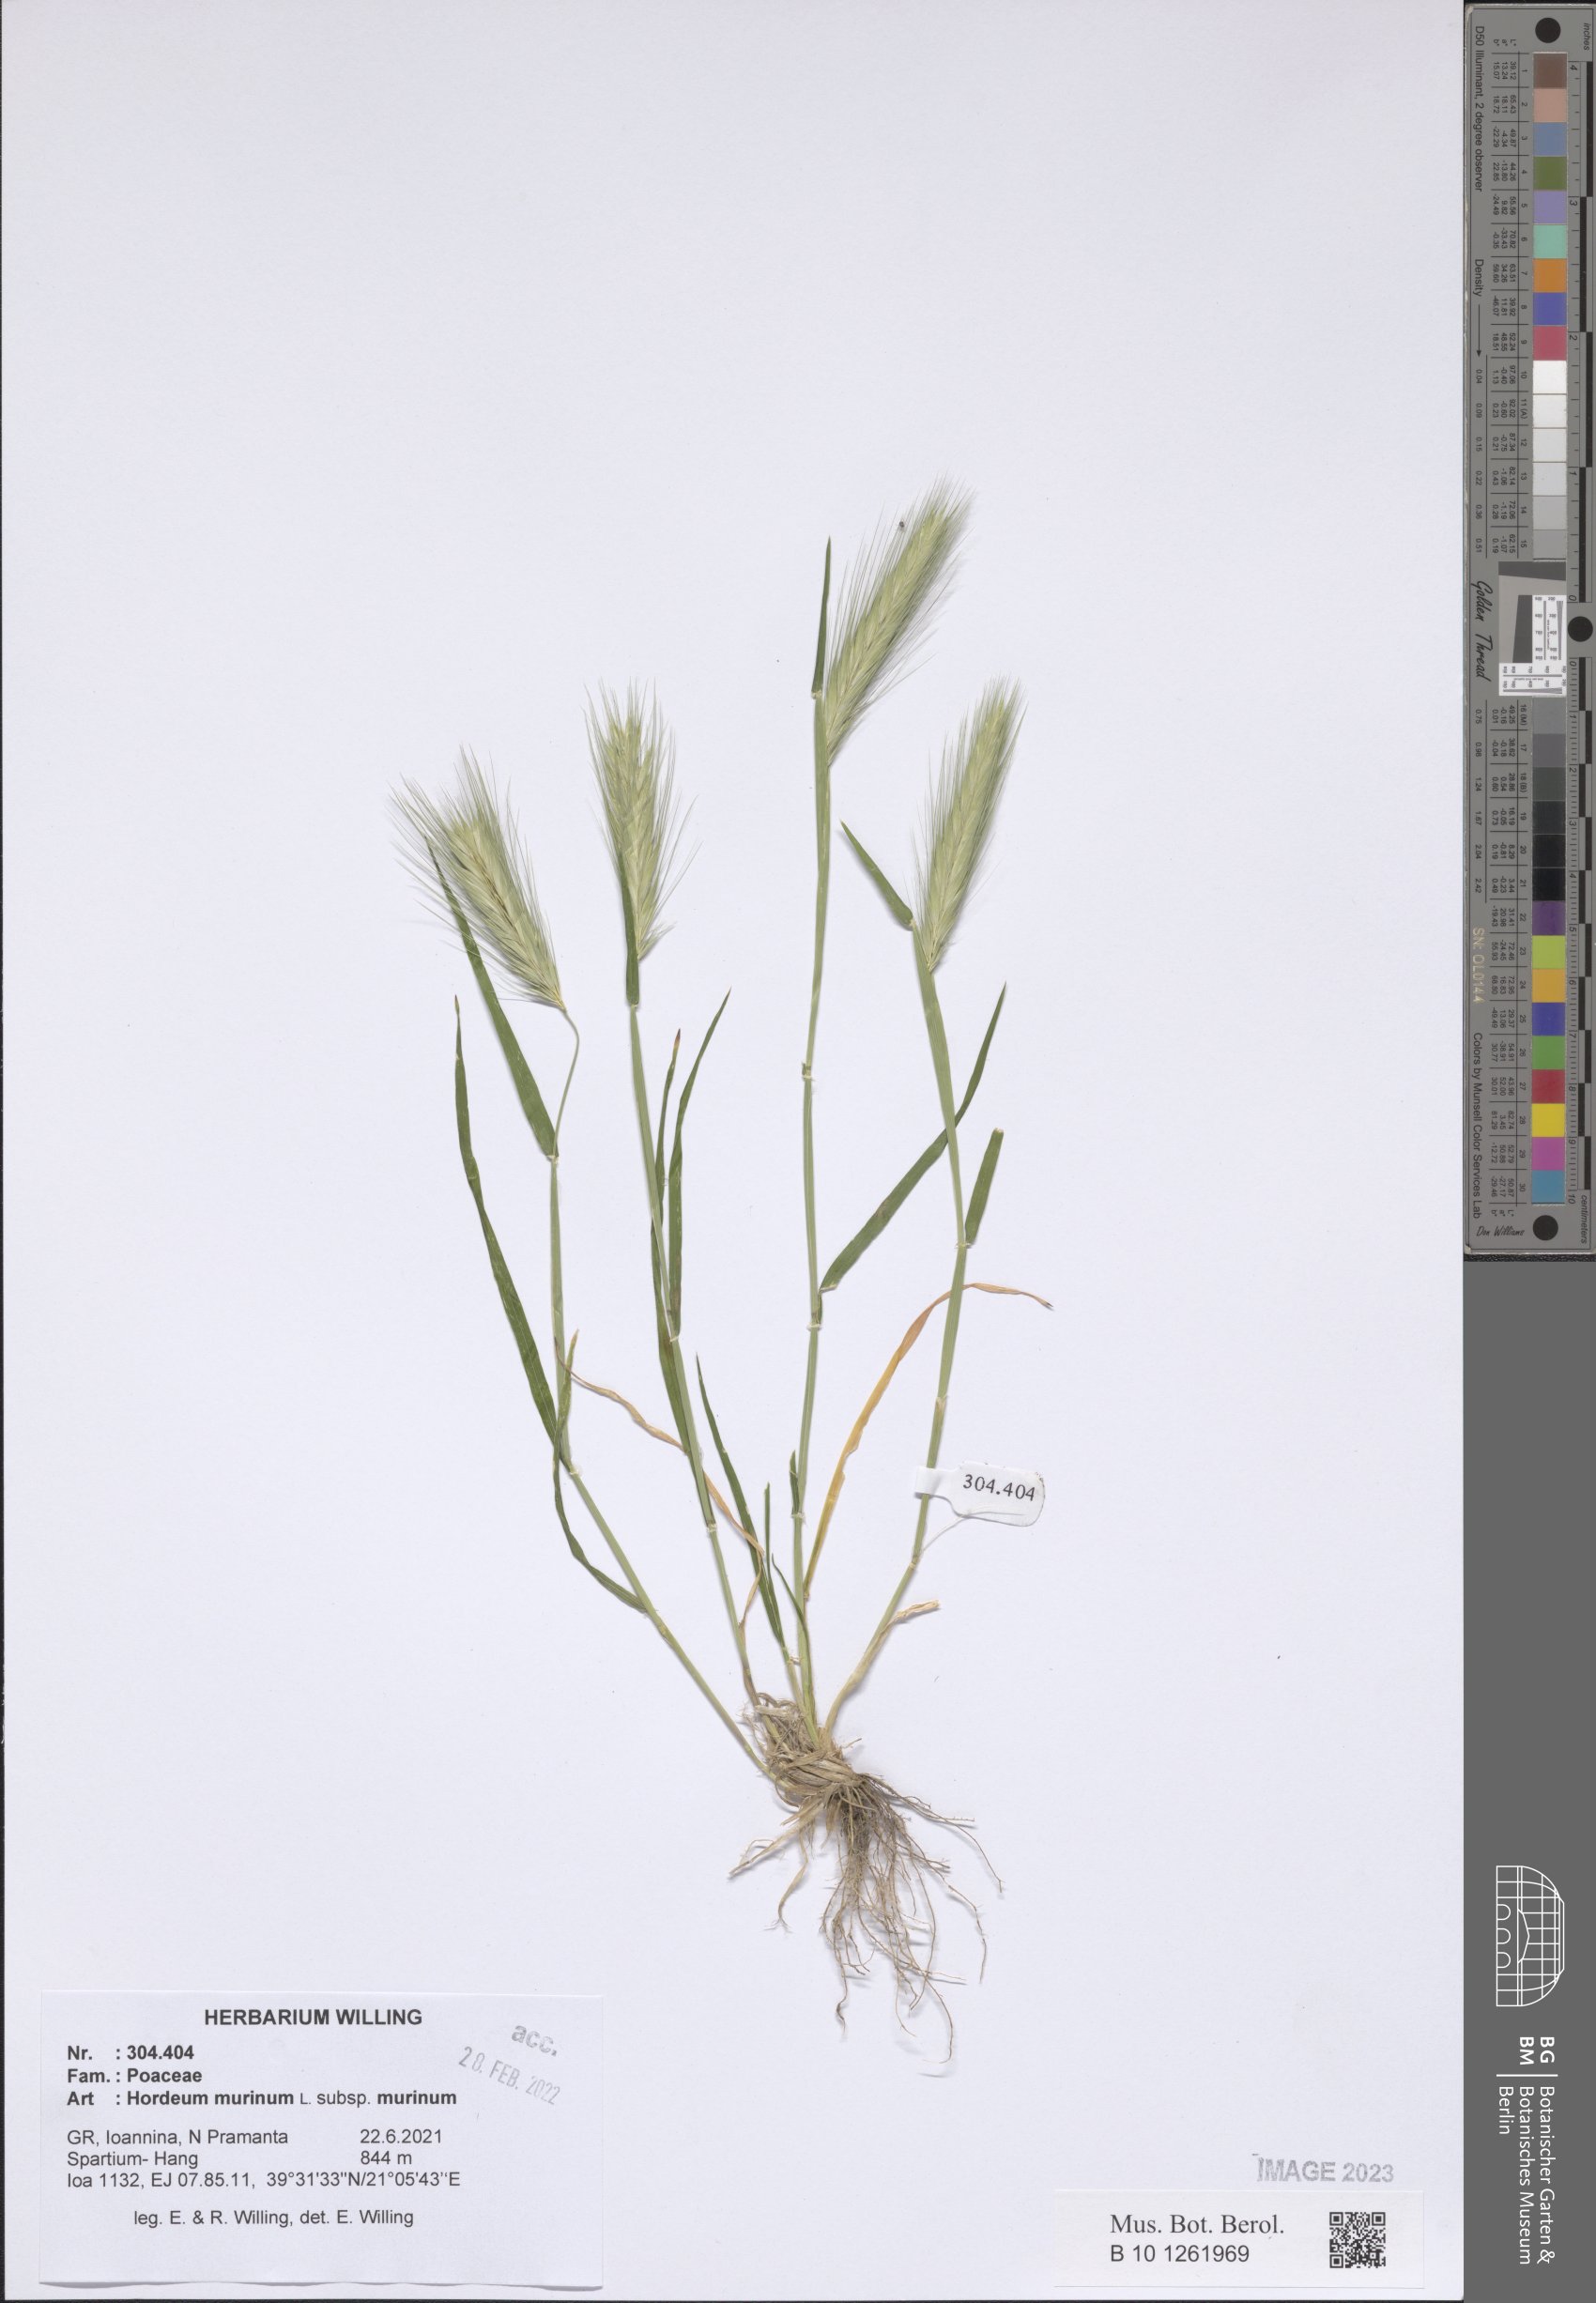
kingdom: Plantae
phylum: Tracheophyta
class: Liliopsida
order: Poales
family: Poaceae
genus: Hordeum
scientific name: Hordeum murinum
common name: Wall barley
